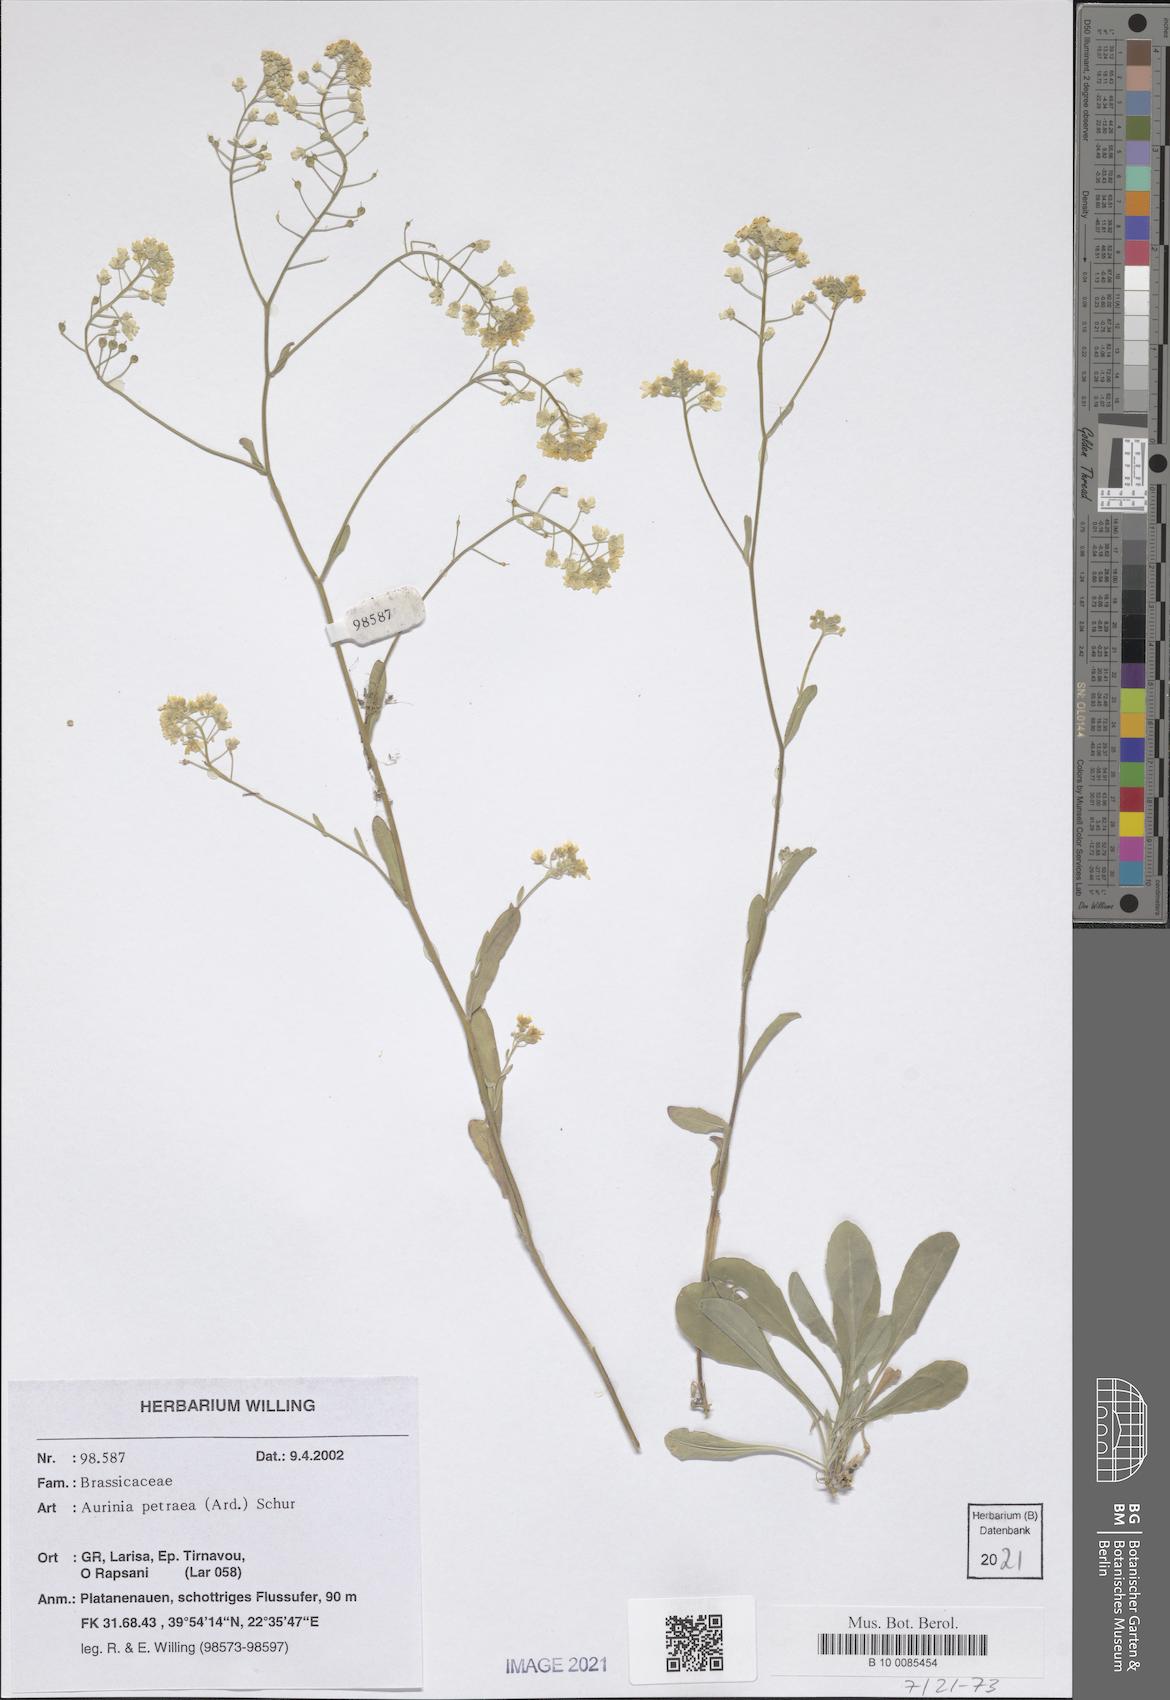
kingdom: Plantae
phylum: Tracheophyta
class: Magnoliopsida
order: Brassicales
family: Brassicaceae
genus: Aurinia
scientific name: Aurinia petraea
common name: Goldentuft
